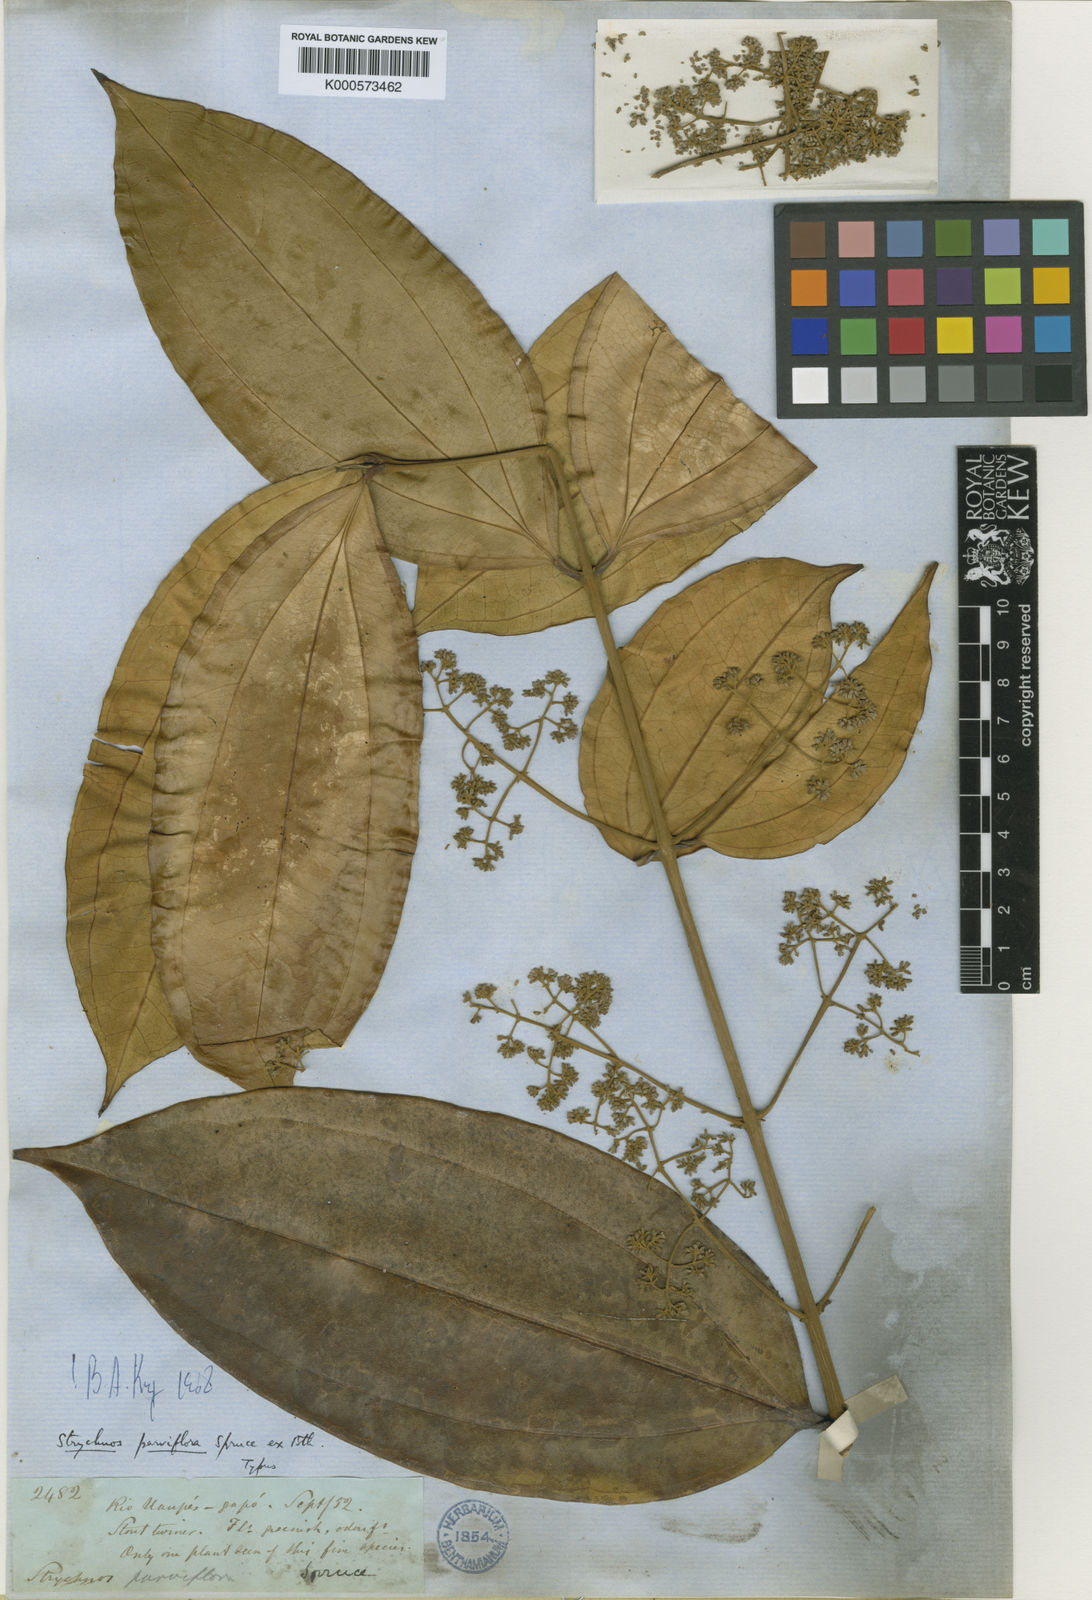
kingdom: Plantae
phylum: Tracheophyta
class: Magnoliopsida
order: Gentianales
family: Loganiaceae
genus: Strychnos
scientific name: Strychnos parviflora
